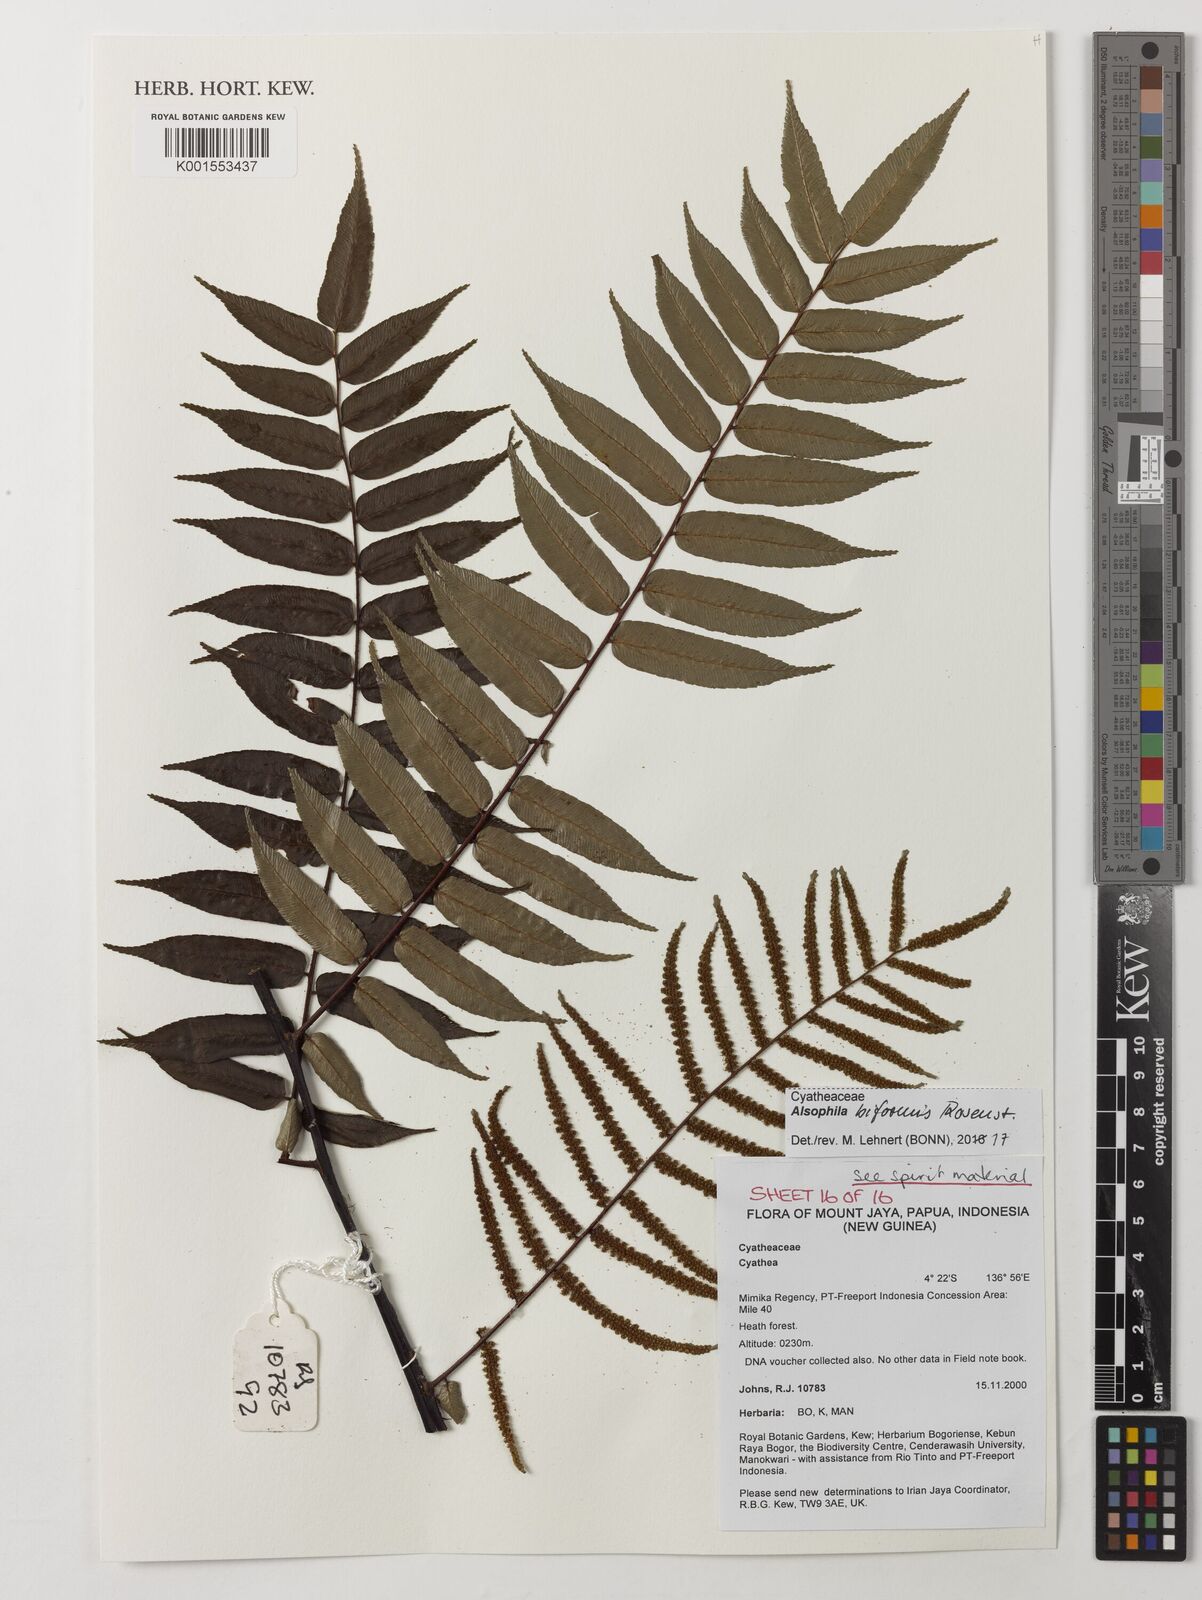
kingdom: Plantae
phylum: Tracheophyta
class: Polypodiopsida
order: Cyatheales
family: Cyatheaceae
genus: Gymnosphaera
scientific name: Gymnosphaera biformis
